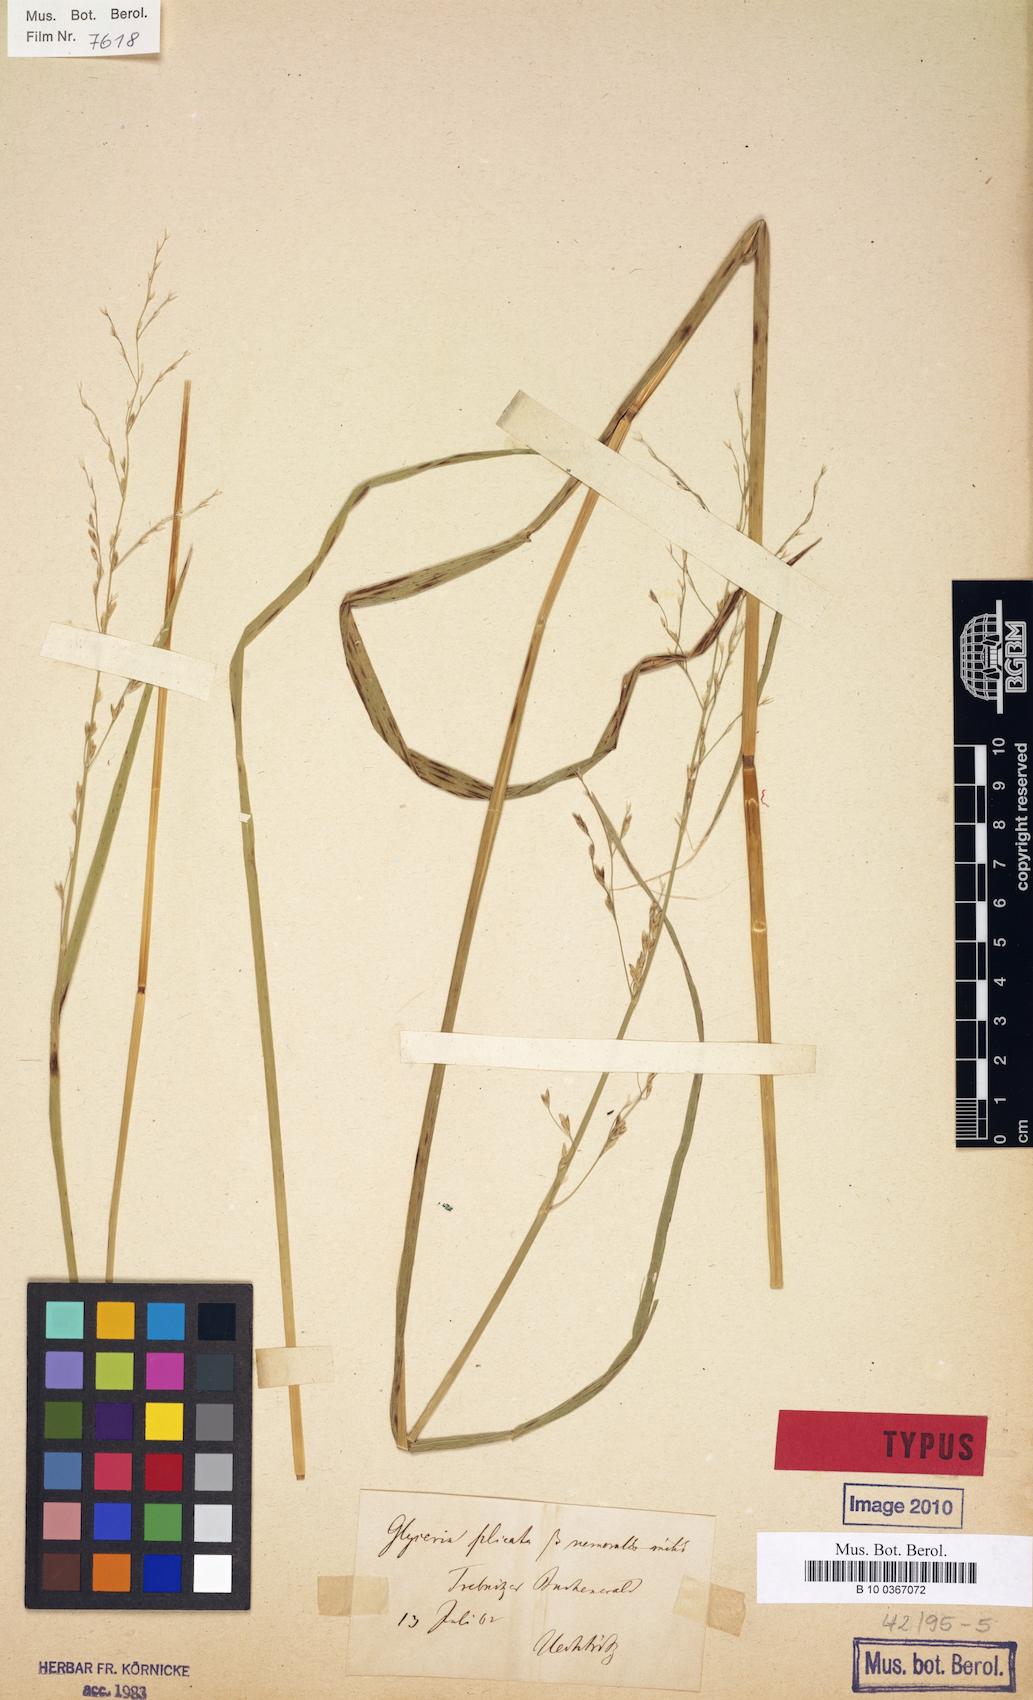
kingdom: Plantae
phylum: Tracheophyta
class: Liliopsida
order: Poales
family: Poaceae
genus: Glyceria
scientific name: Glyceria nemoralis
